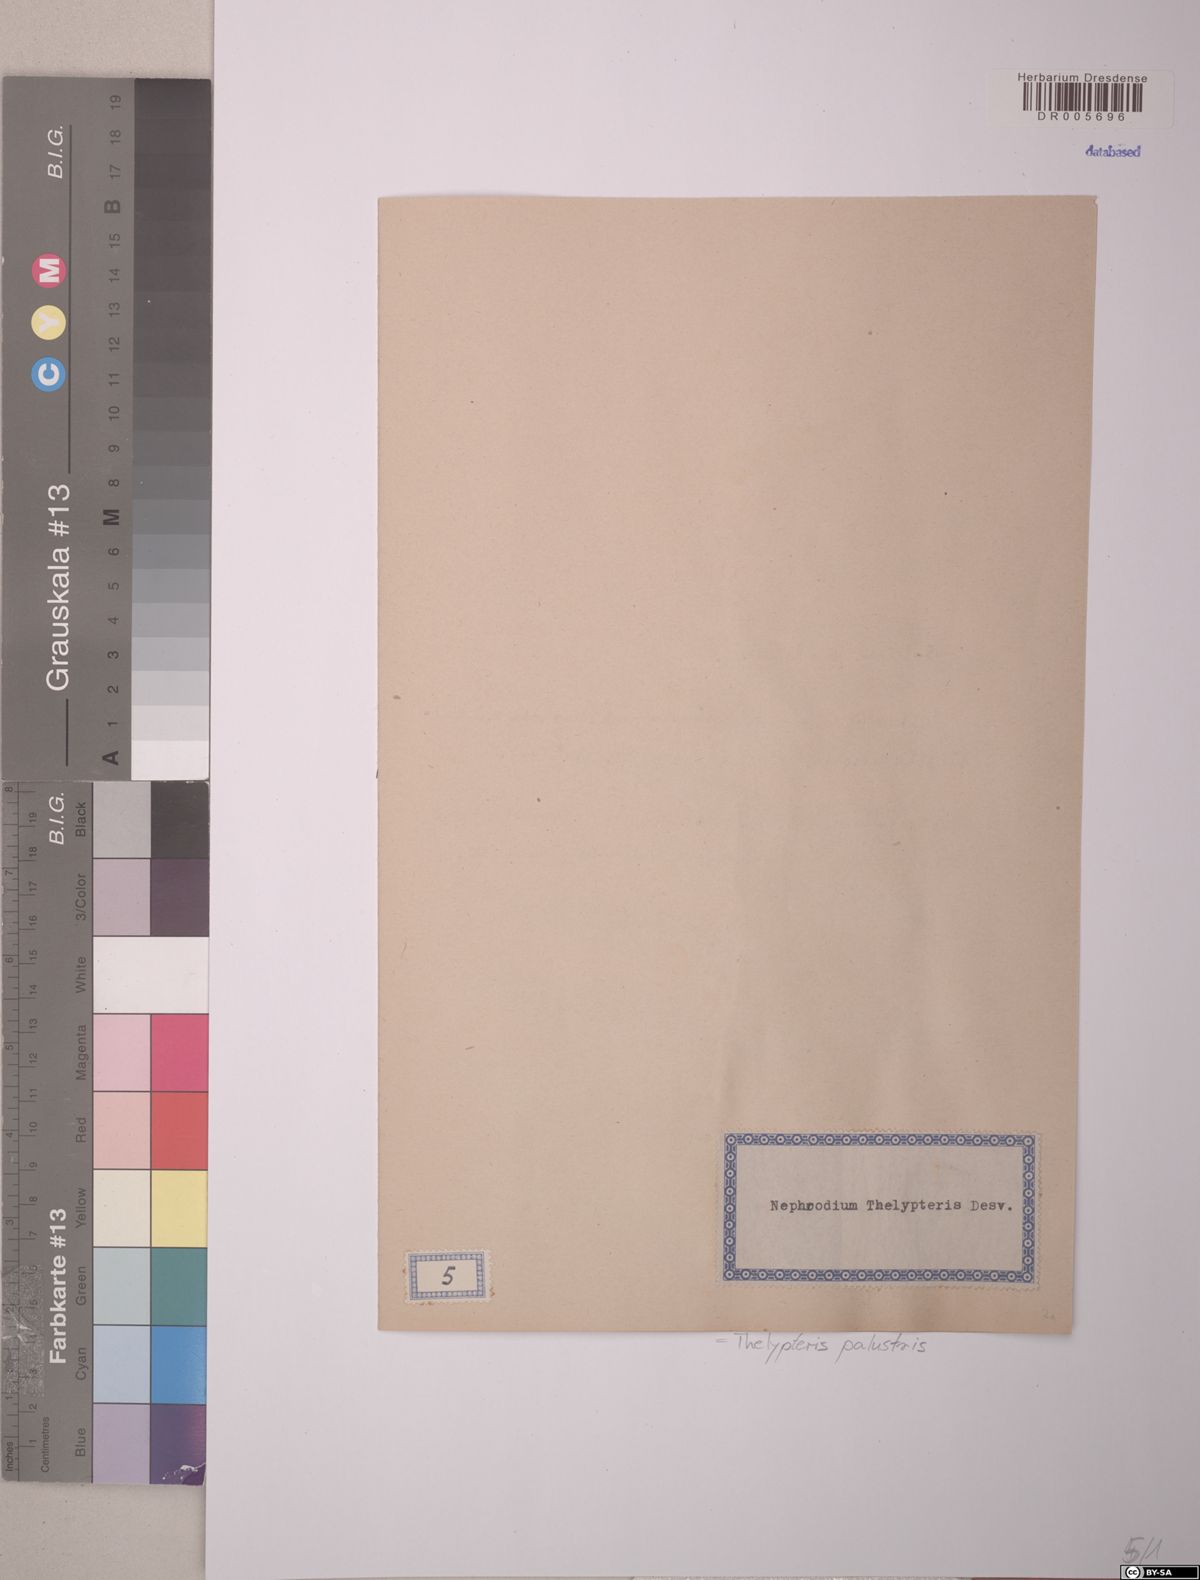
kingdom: Plantae
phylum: Tracheophyta
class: Polypodiopsida
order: Polypodiales
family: Thelypteridaceae
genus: Thelypteris
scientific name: Thelypteris palustris
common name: Marsh fern
